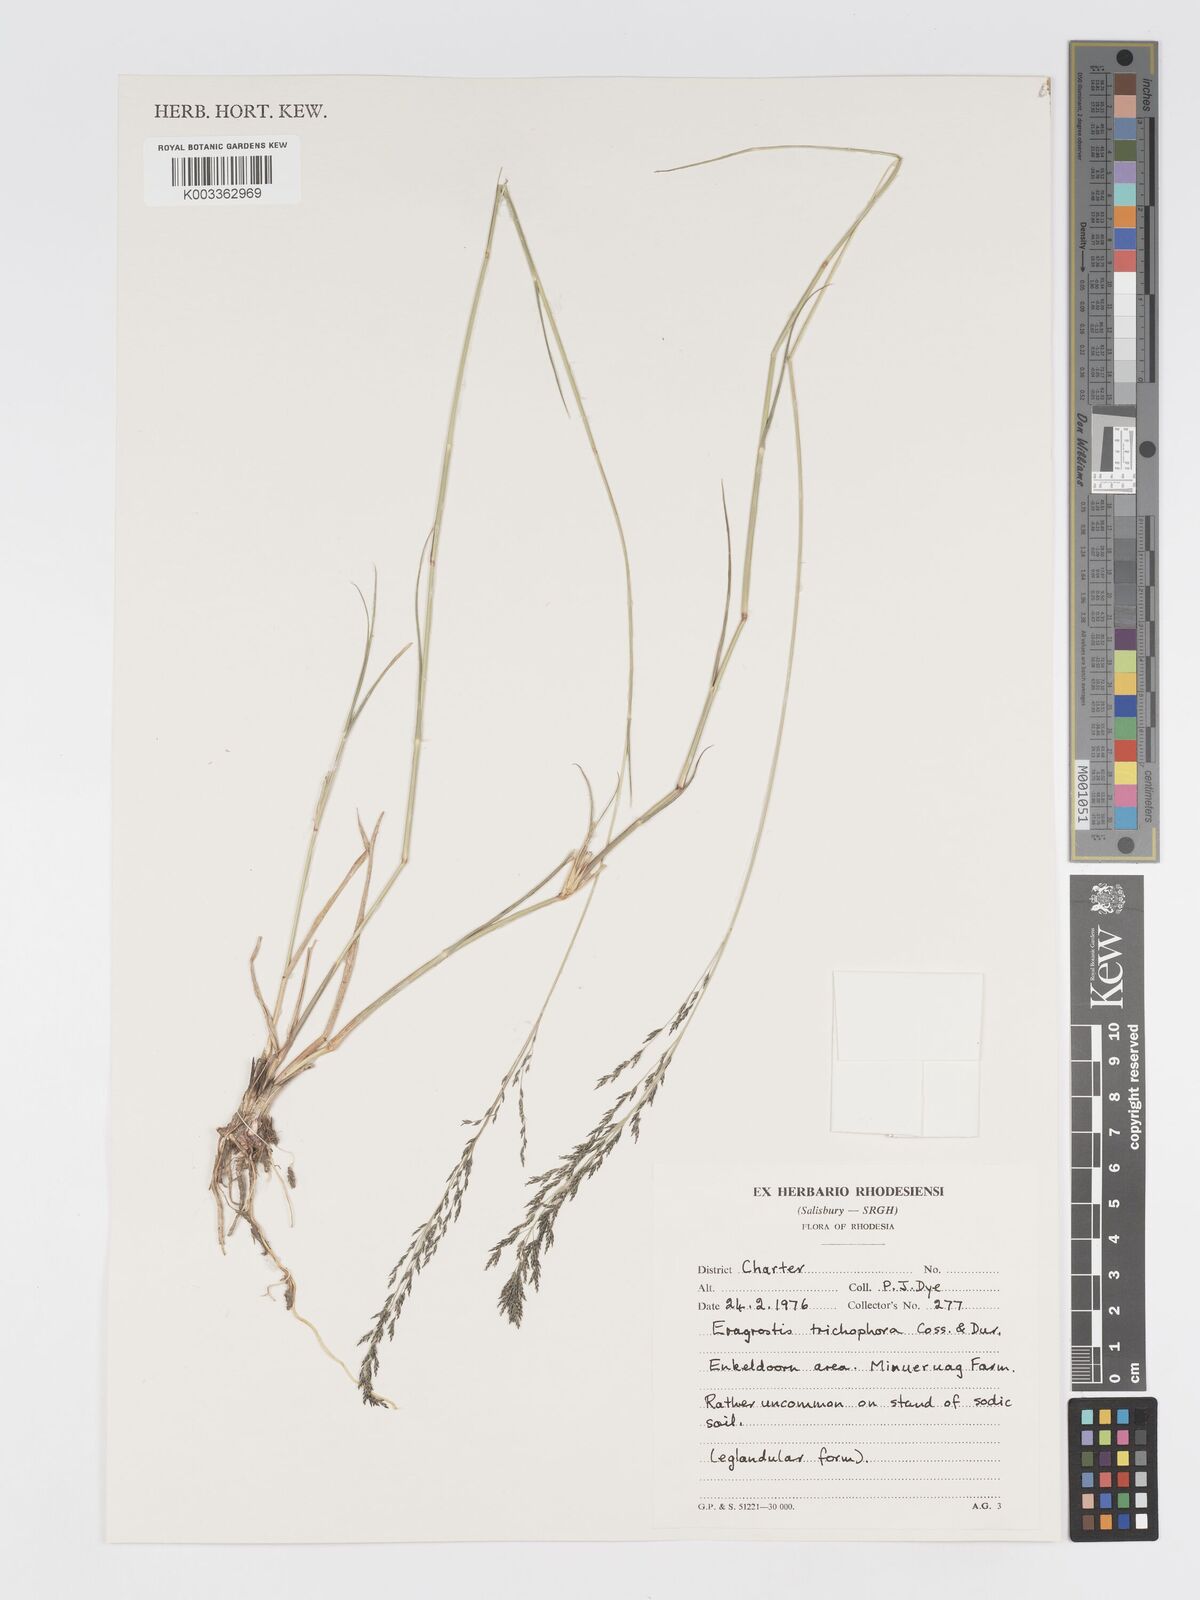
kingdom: Plantae
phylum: Tracheophyta
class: Liliopsida
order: Poales
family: Poaceae
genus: Eragrostis
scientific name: Eragrostis cylindriflora
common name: Cylinderflower lovegrass
